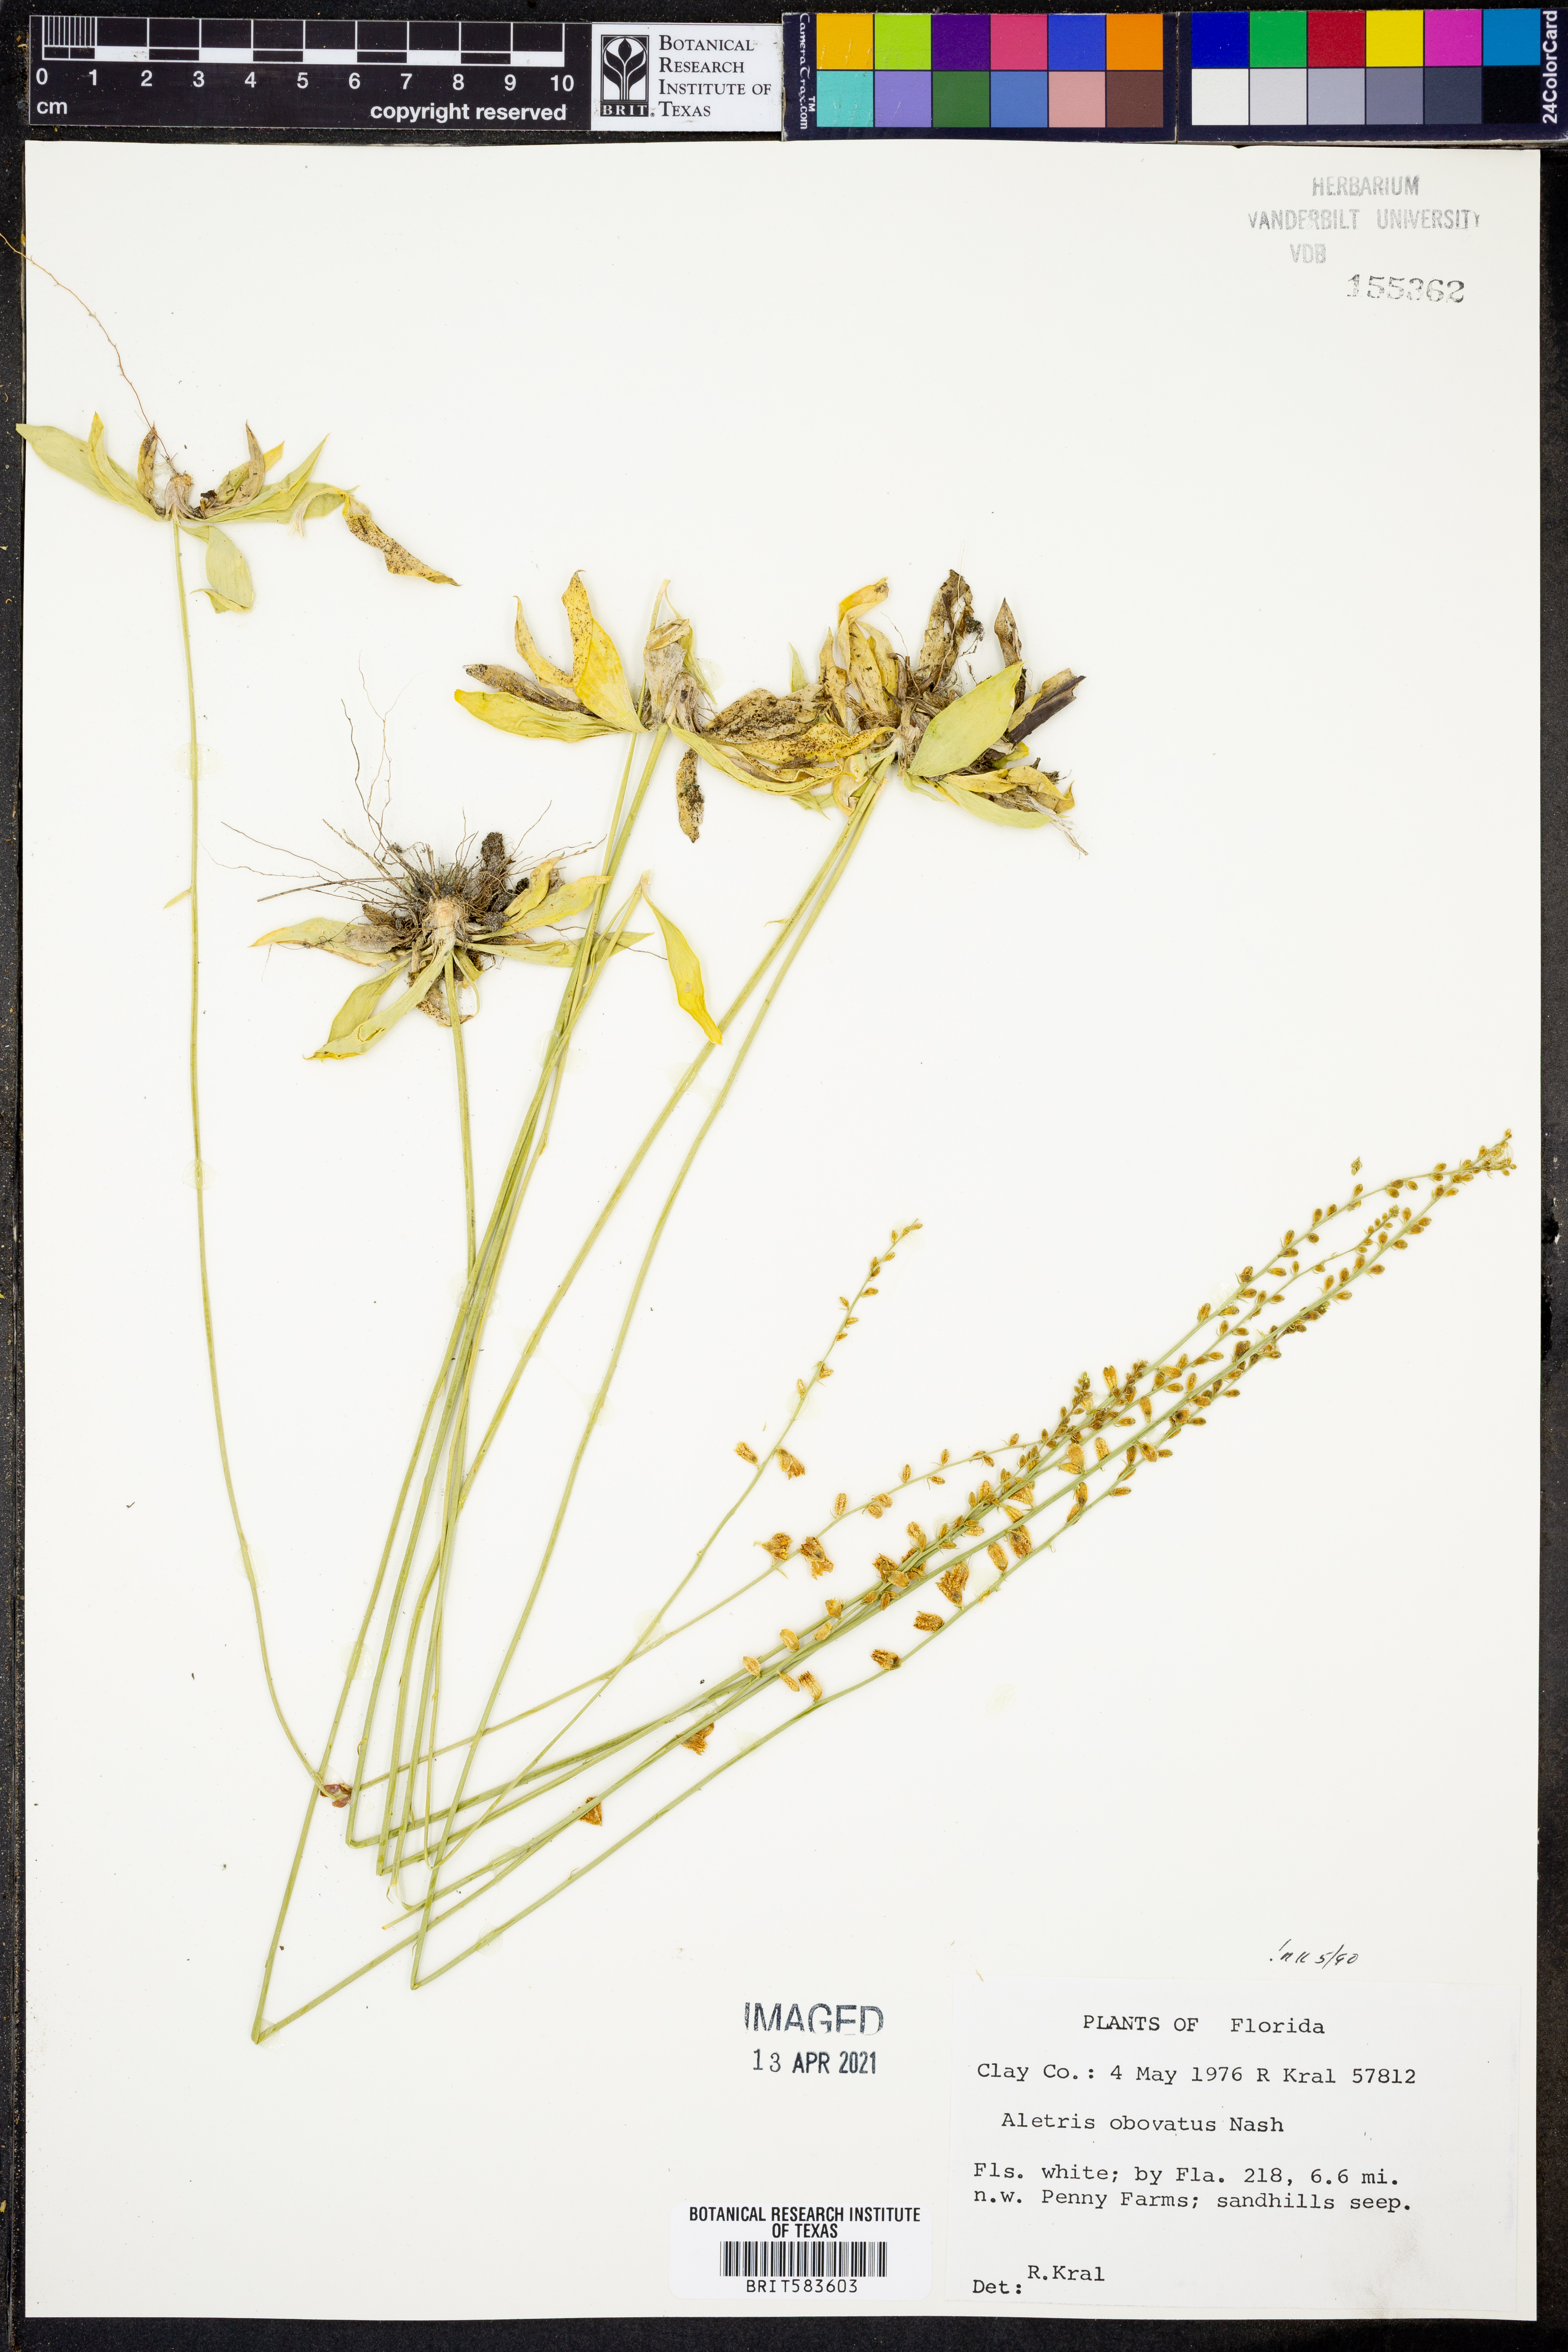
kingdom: Plantae
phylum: Tracheophyta
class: Liliopsida
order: Dioscoreales
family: Nartheciaceae
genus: Aletris
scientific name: Aletris obovata
